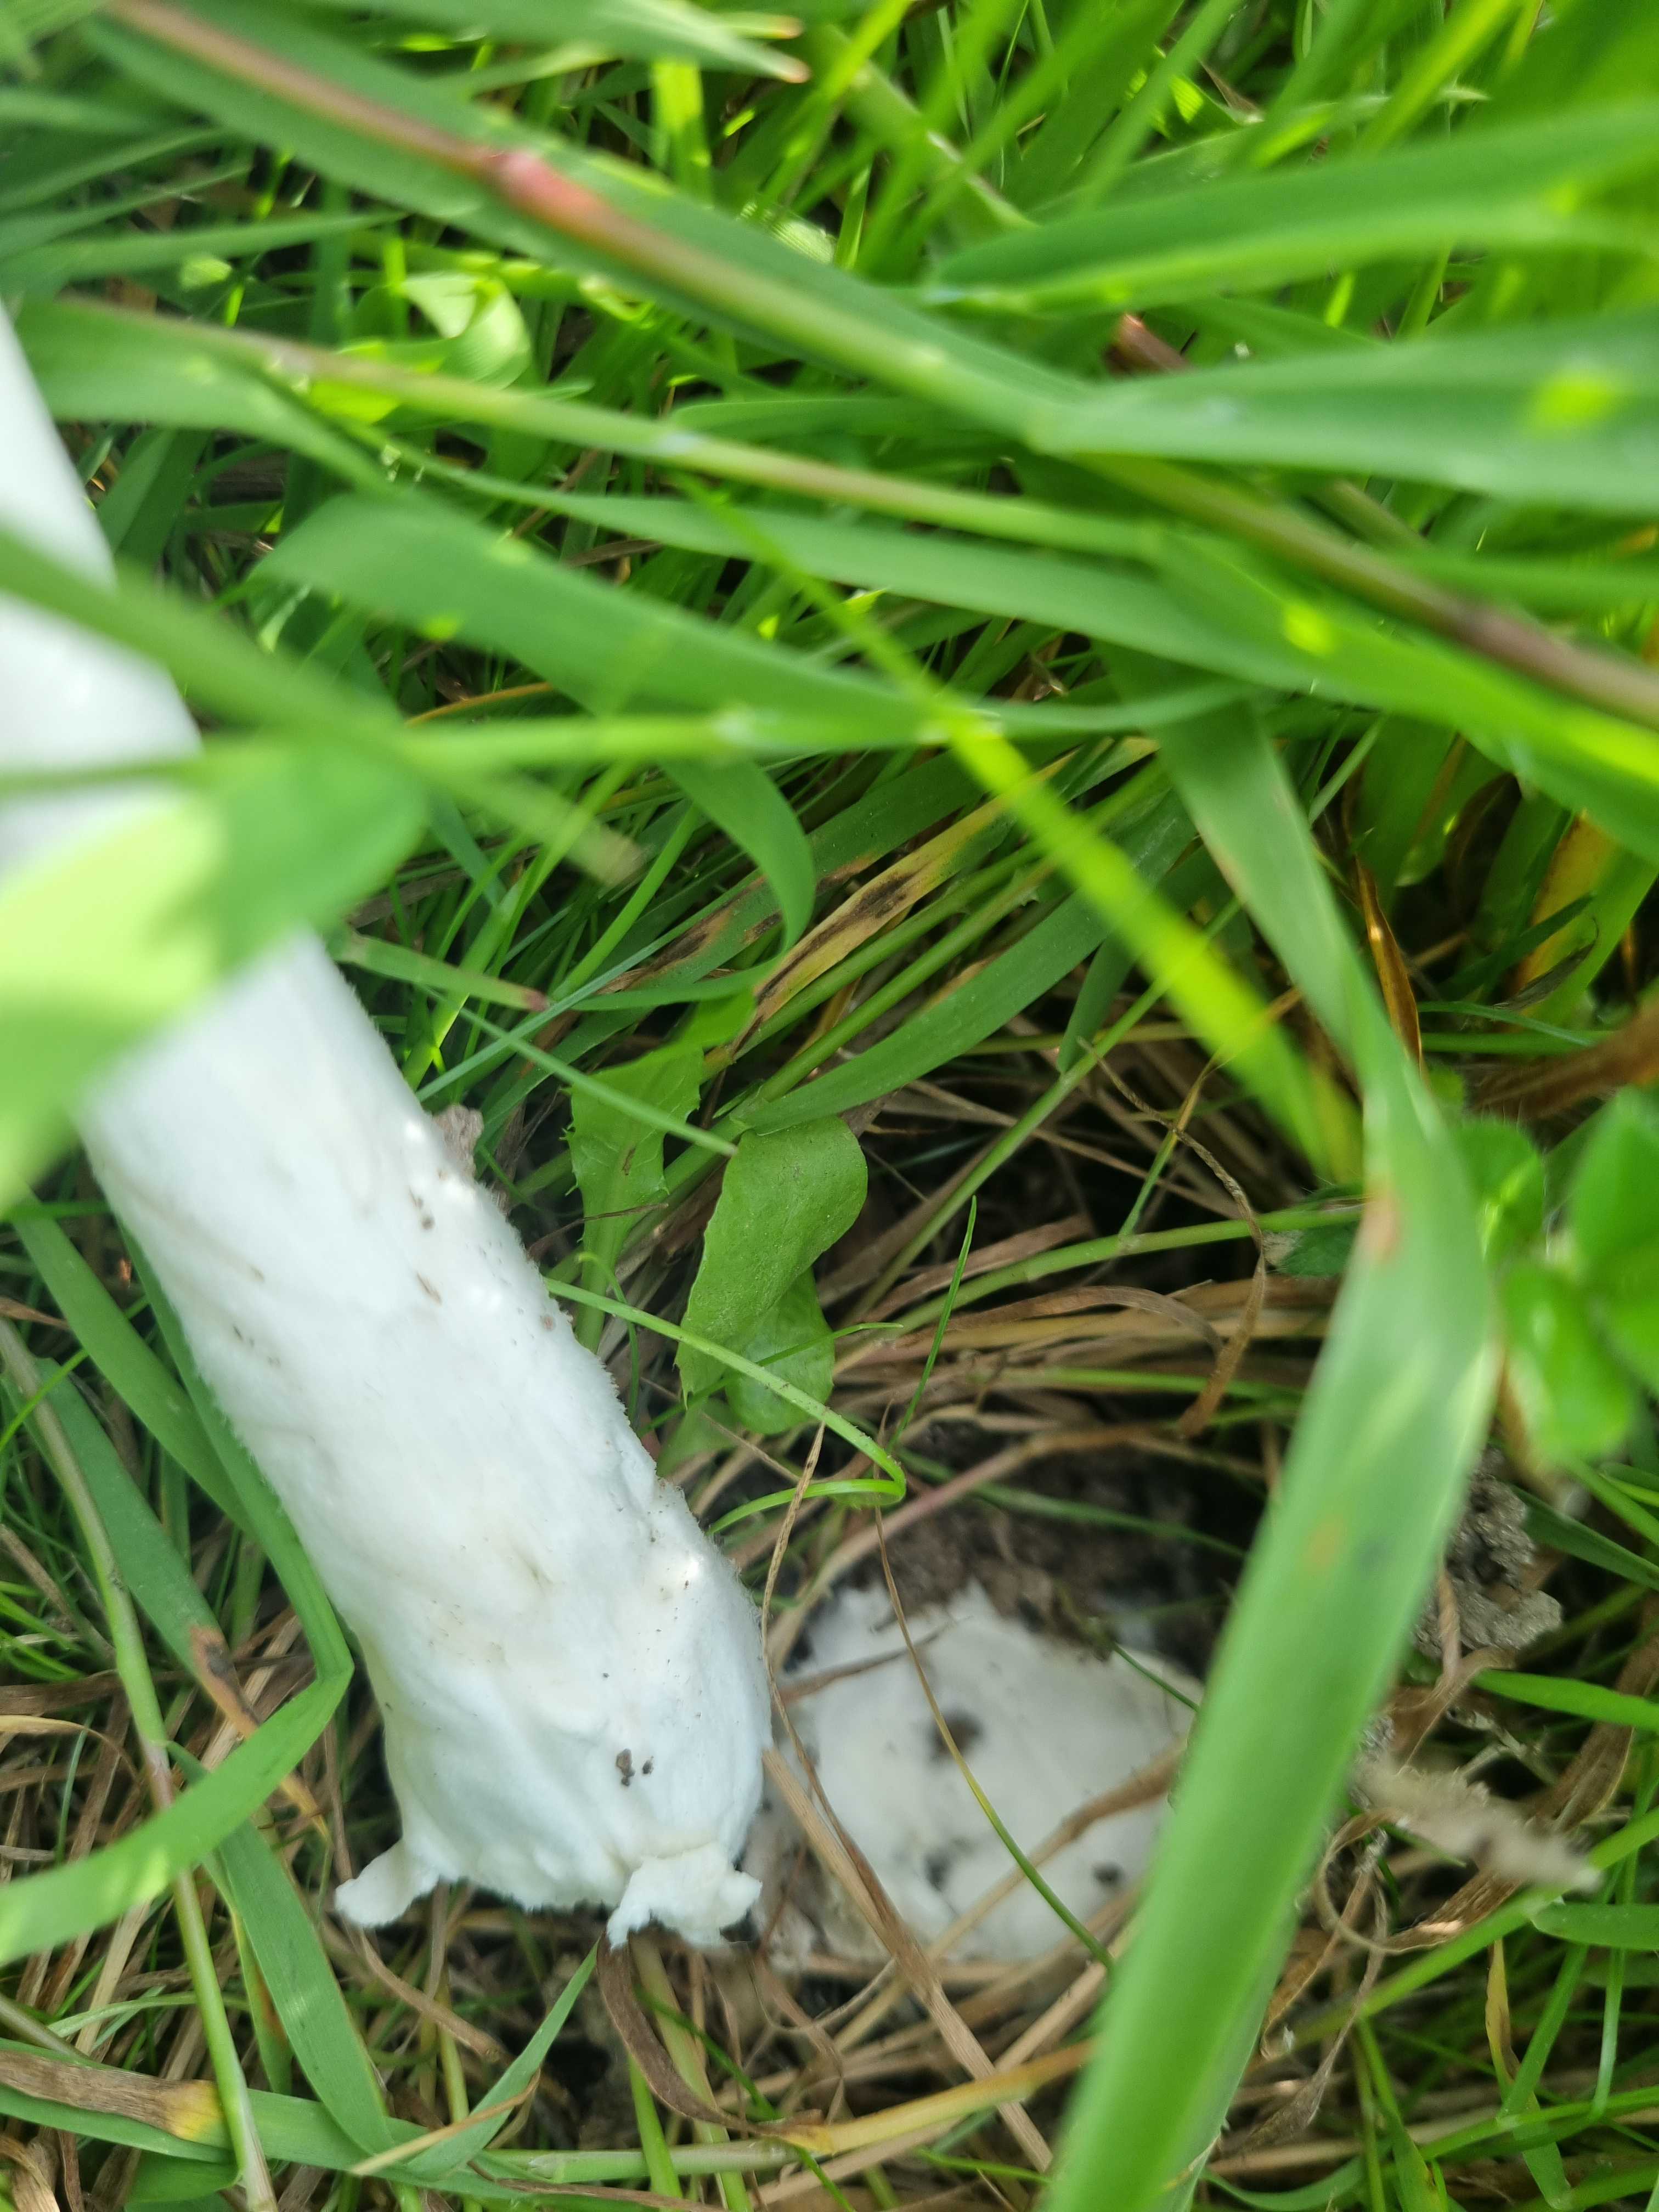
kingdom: Fungi
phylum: Basidiomycota
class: Agaricomycetes
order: Agaricales
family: Pluteaceae
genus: Volvopluteus
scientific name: Volvopluteus gloiocephalus
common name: høj posesvamp
